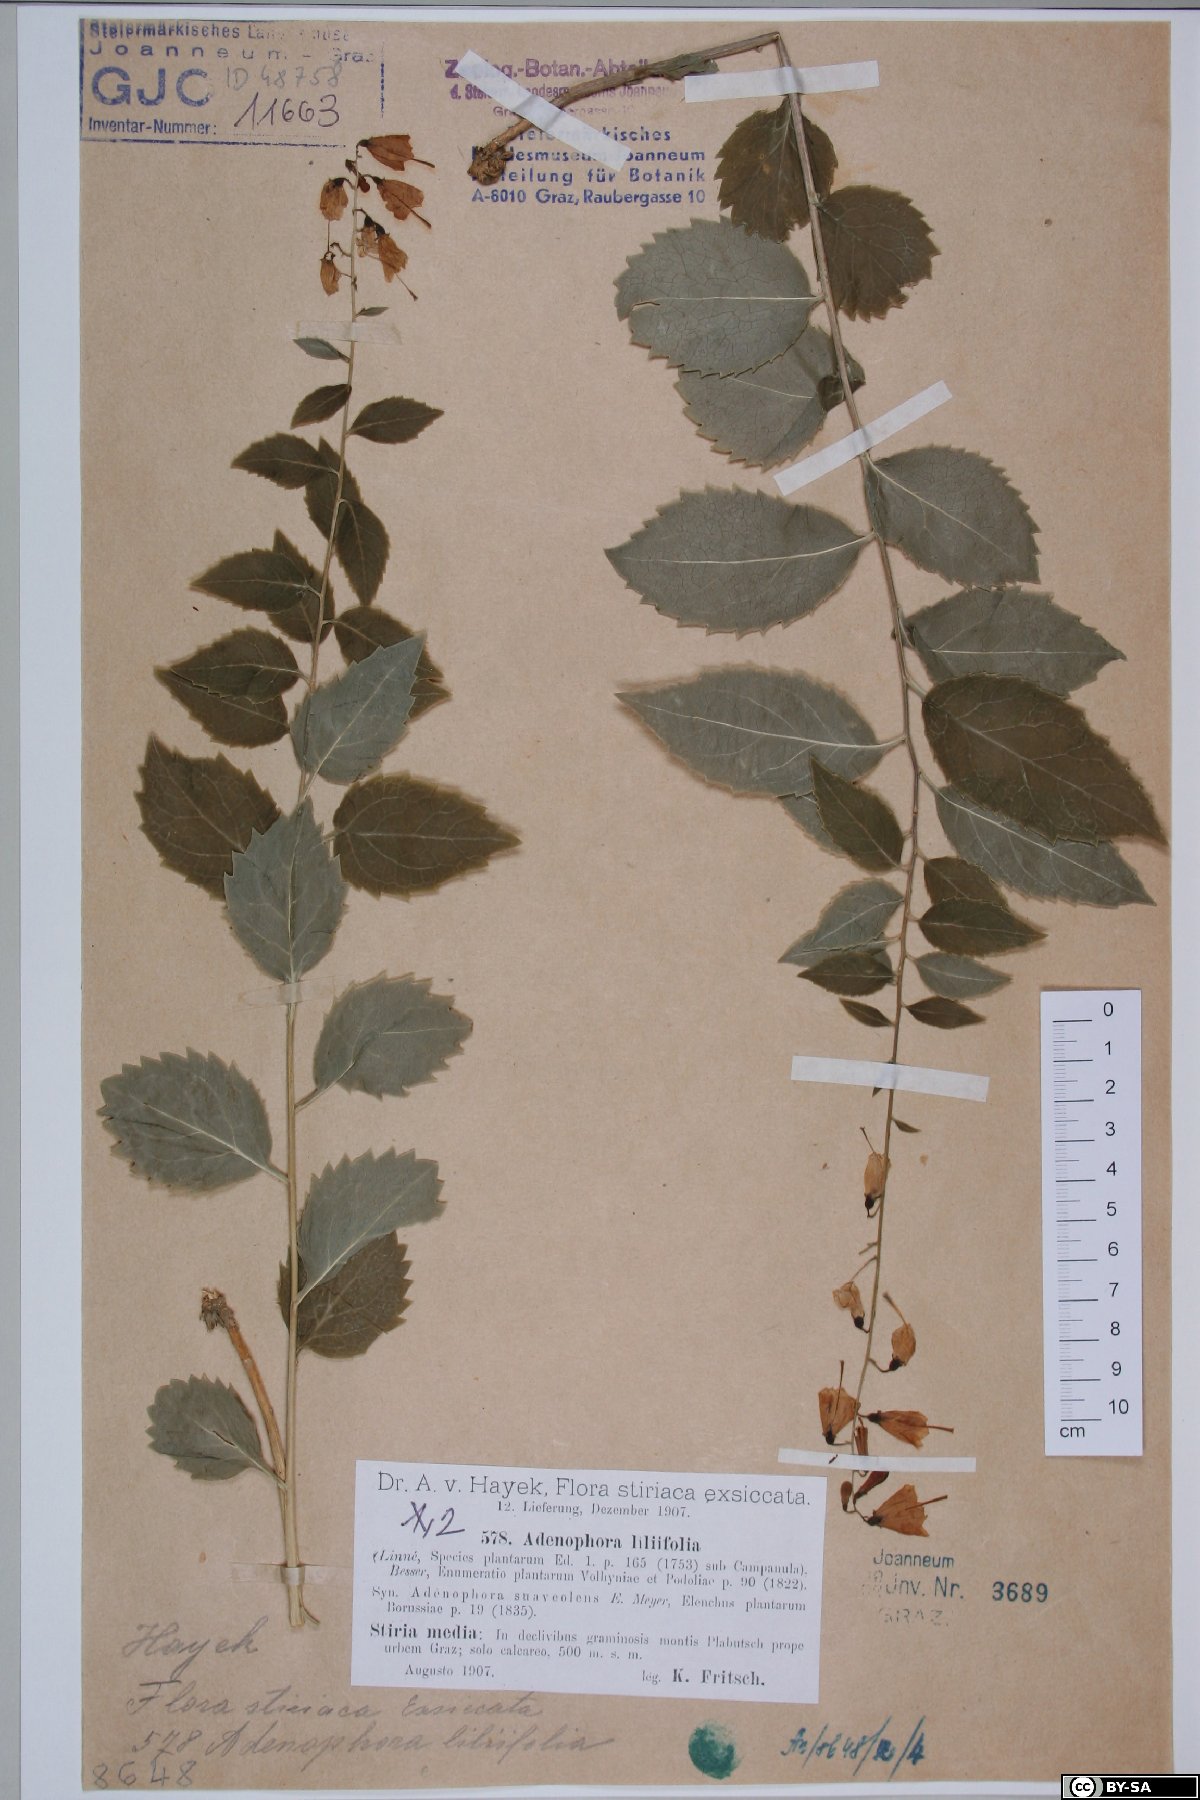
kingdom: Plantae
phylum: Tracheophyta
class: Magnoliopsida
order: Asterales
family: Campanulaceae
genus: Adenophora
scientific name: Adenophora liliifolia
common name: Lilyleaf ladybells
